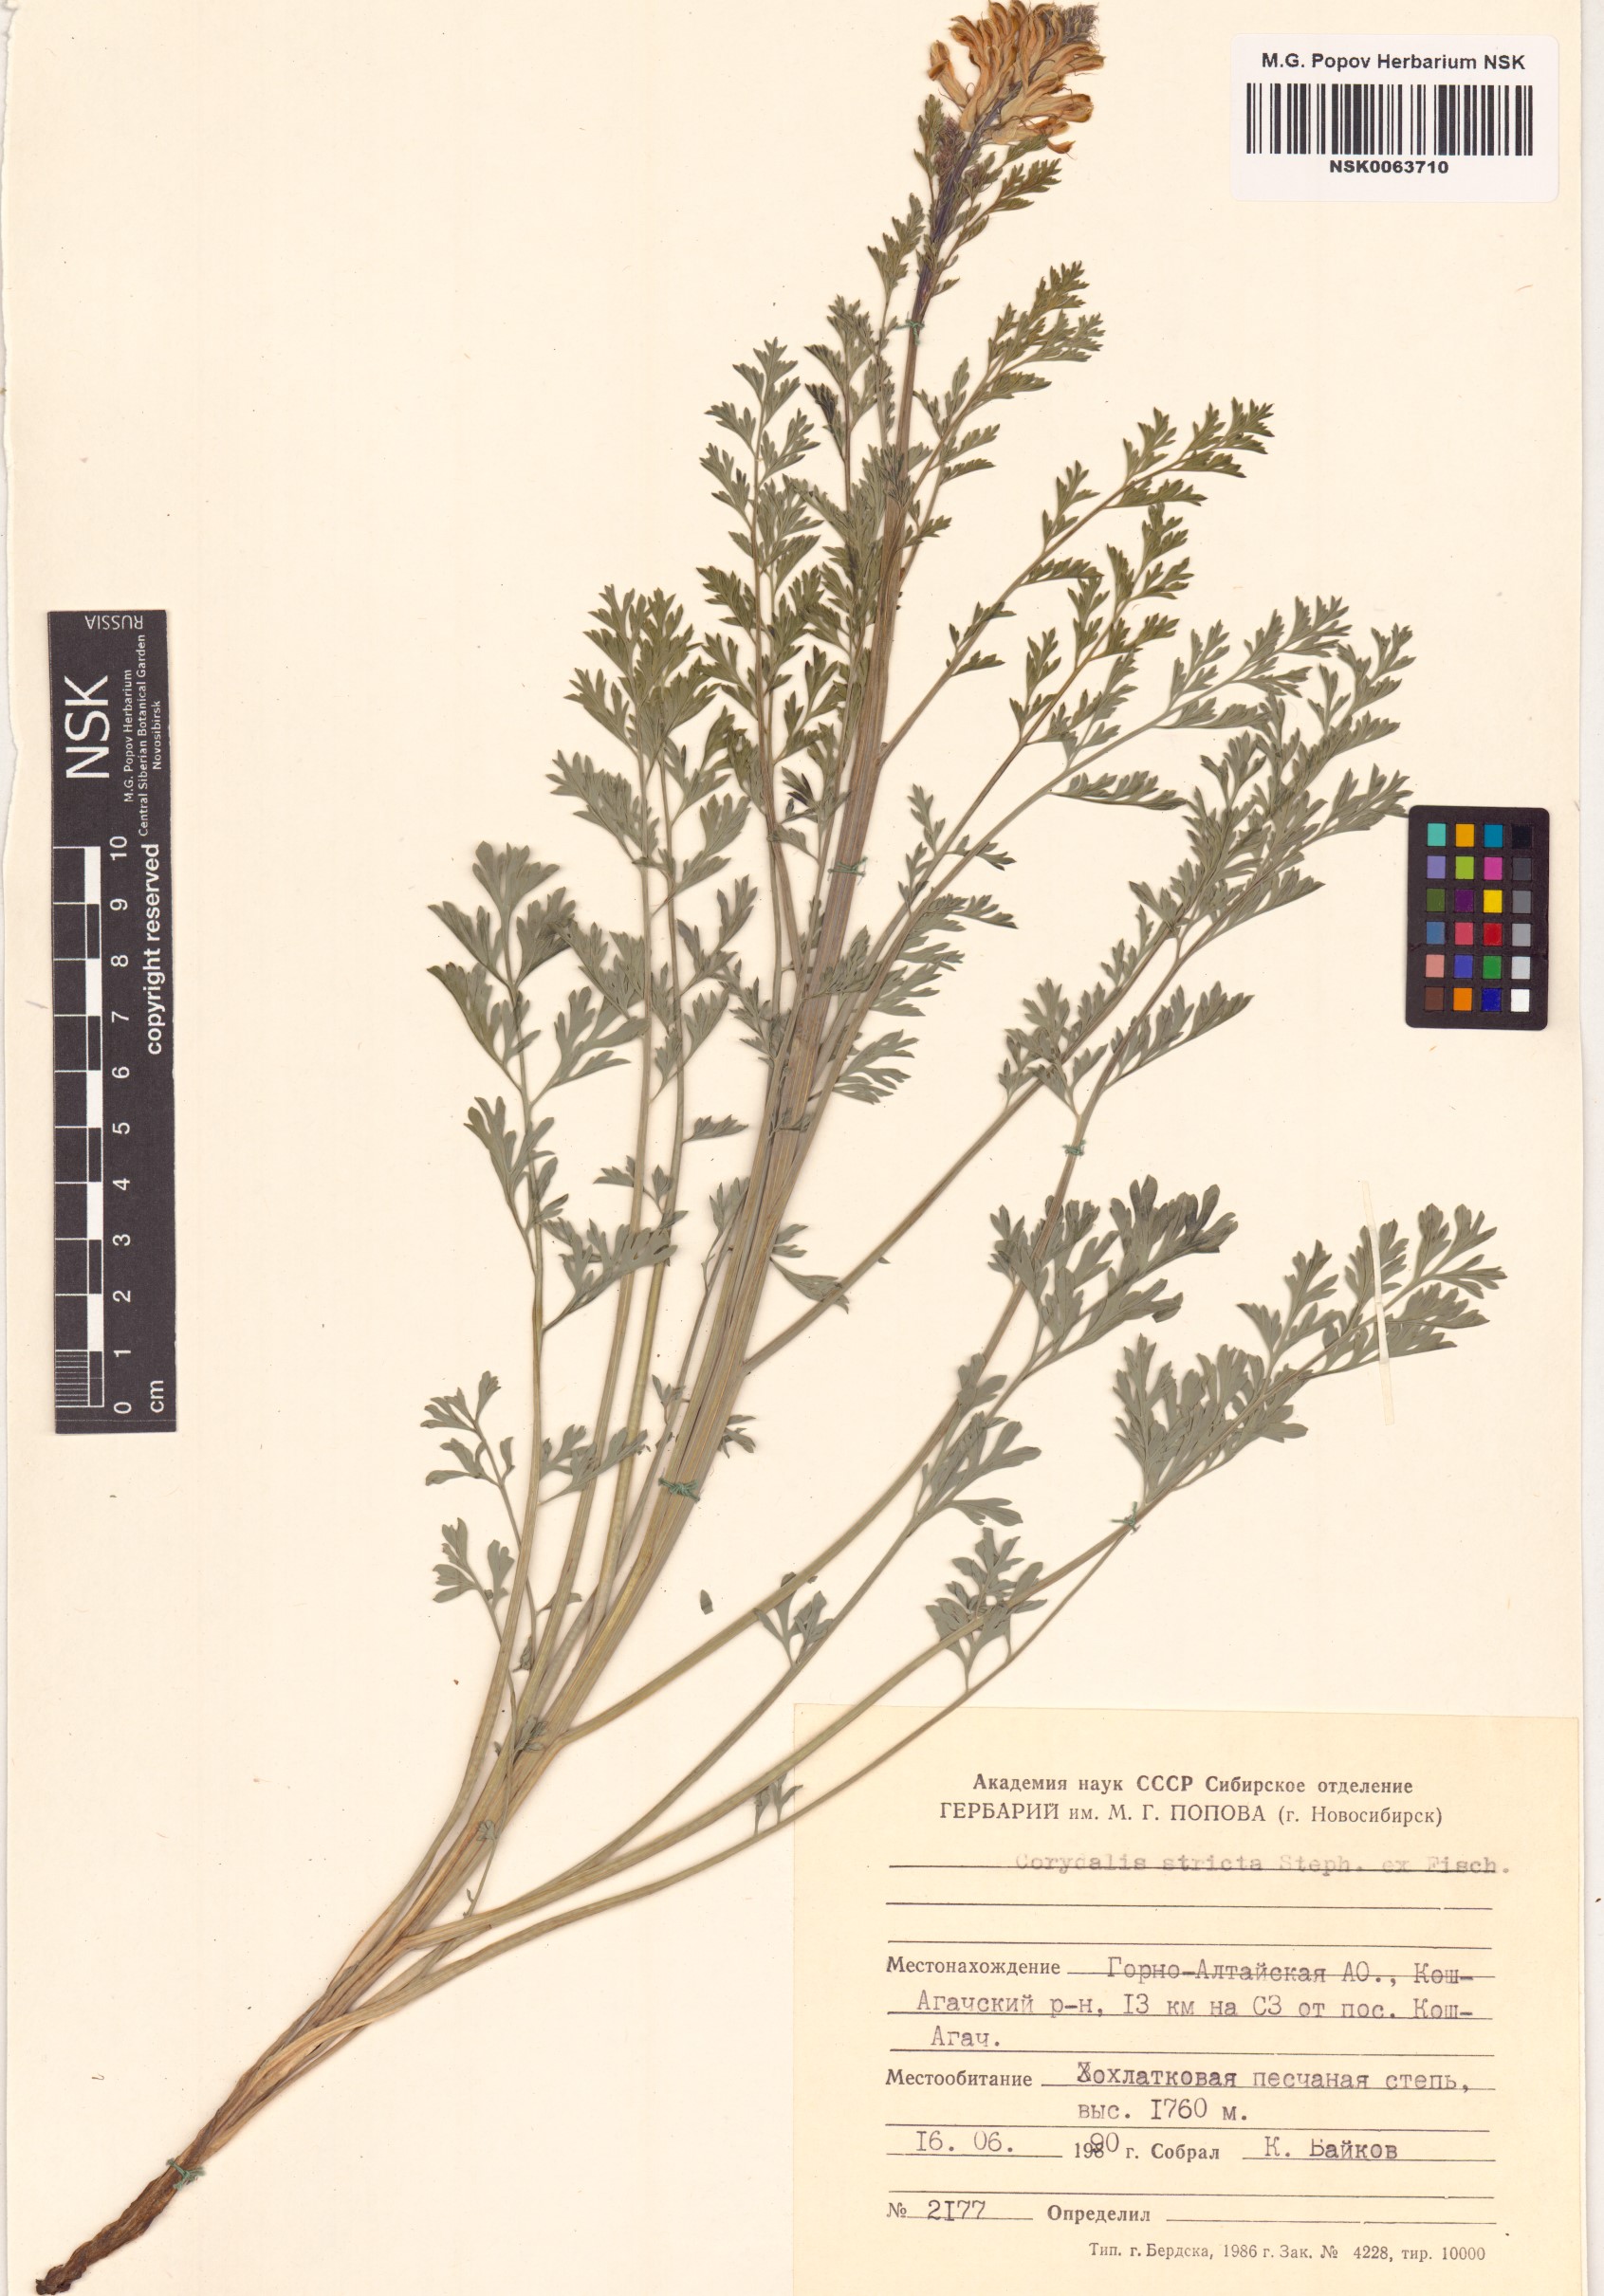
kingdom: Plantae
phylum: Tracheophyta
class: Magnoliopsida
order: Ranunculales
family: Papaveraceae
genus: Corydalis
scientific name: Corydalis stricta
